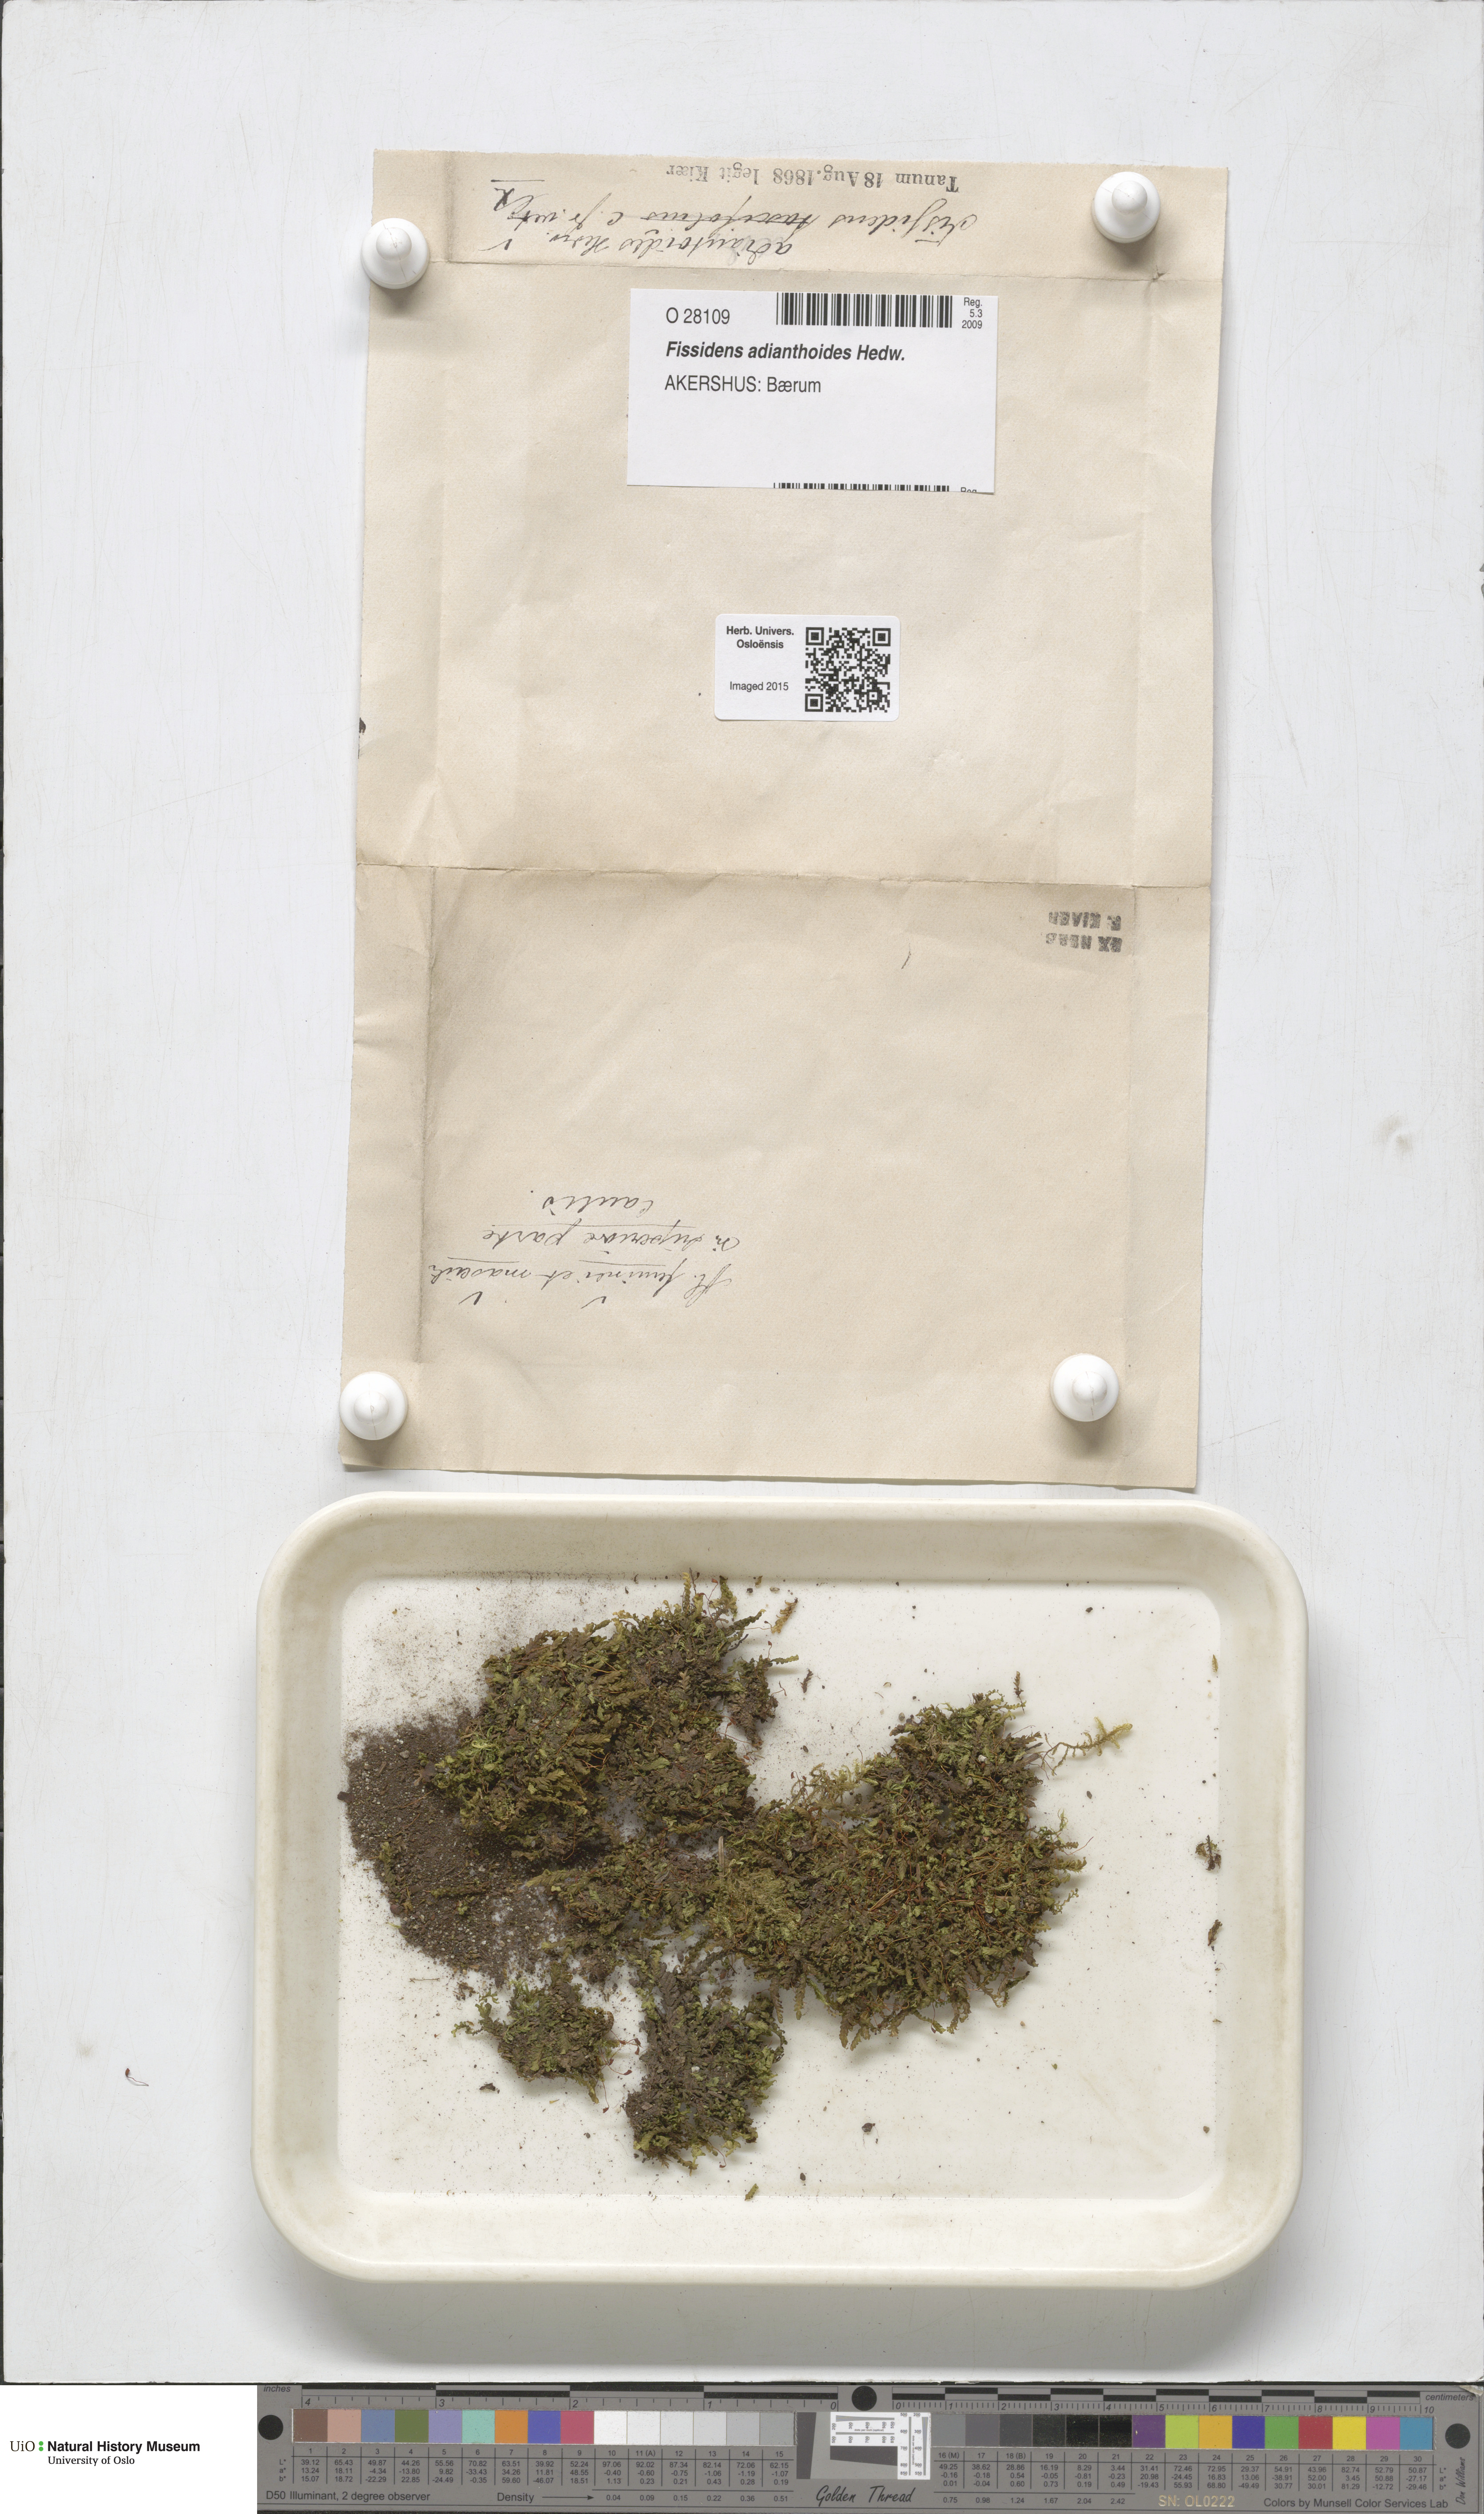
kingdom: Plantae
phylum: Bryophyta
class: Bryopsida
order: Dicranales
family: Fissidentaceae
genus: Fissidens
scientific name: Fissidens adianthoides
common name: Maidenhair pocket moss
